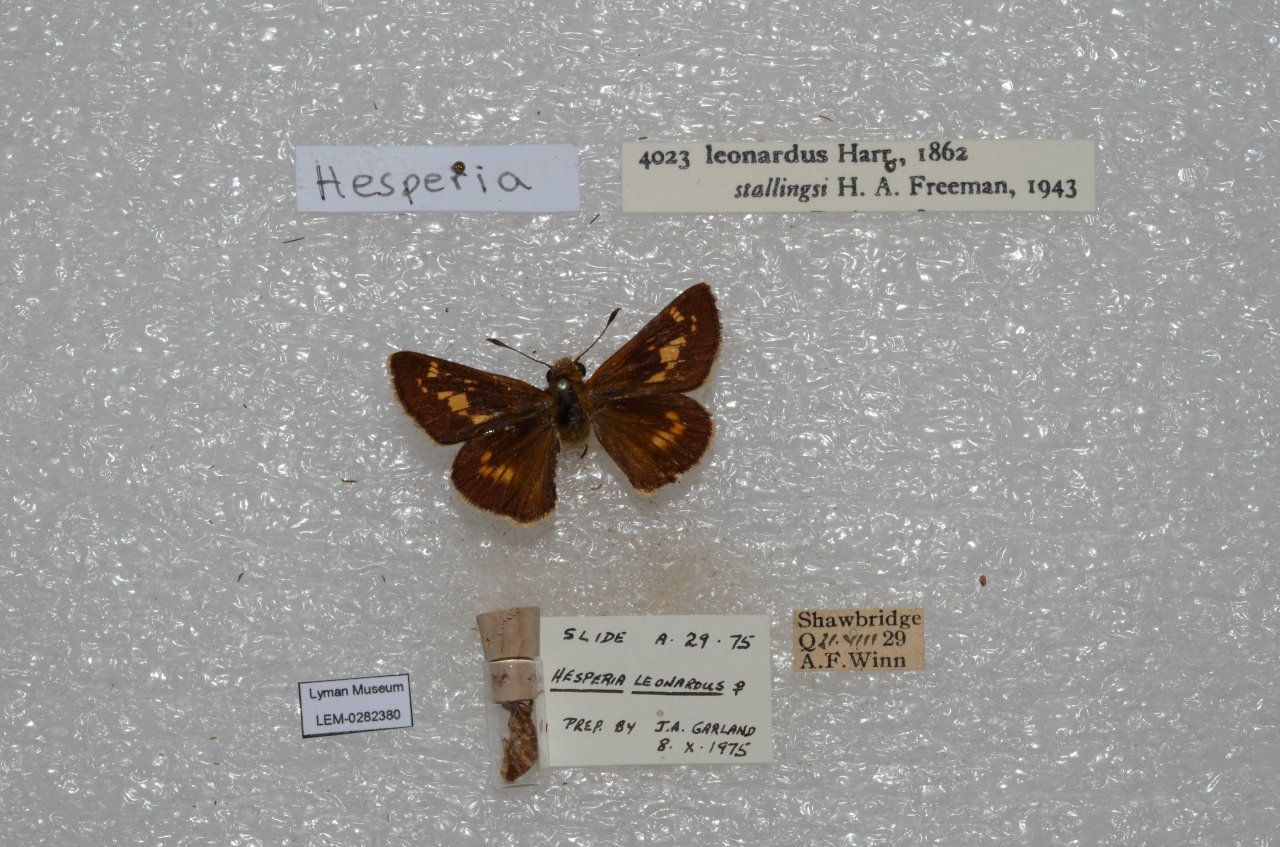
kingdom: Animalia
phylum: Arthropoda
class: Insecta
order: Lepidoptera
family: Hesperiidae
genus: Hesperia
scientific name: Hesperia leonardus
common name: Leonard's Skipper
